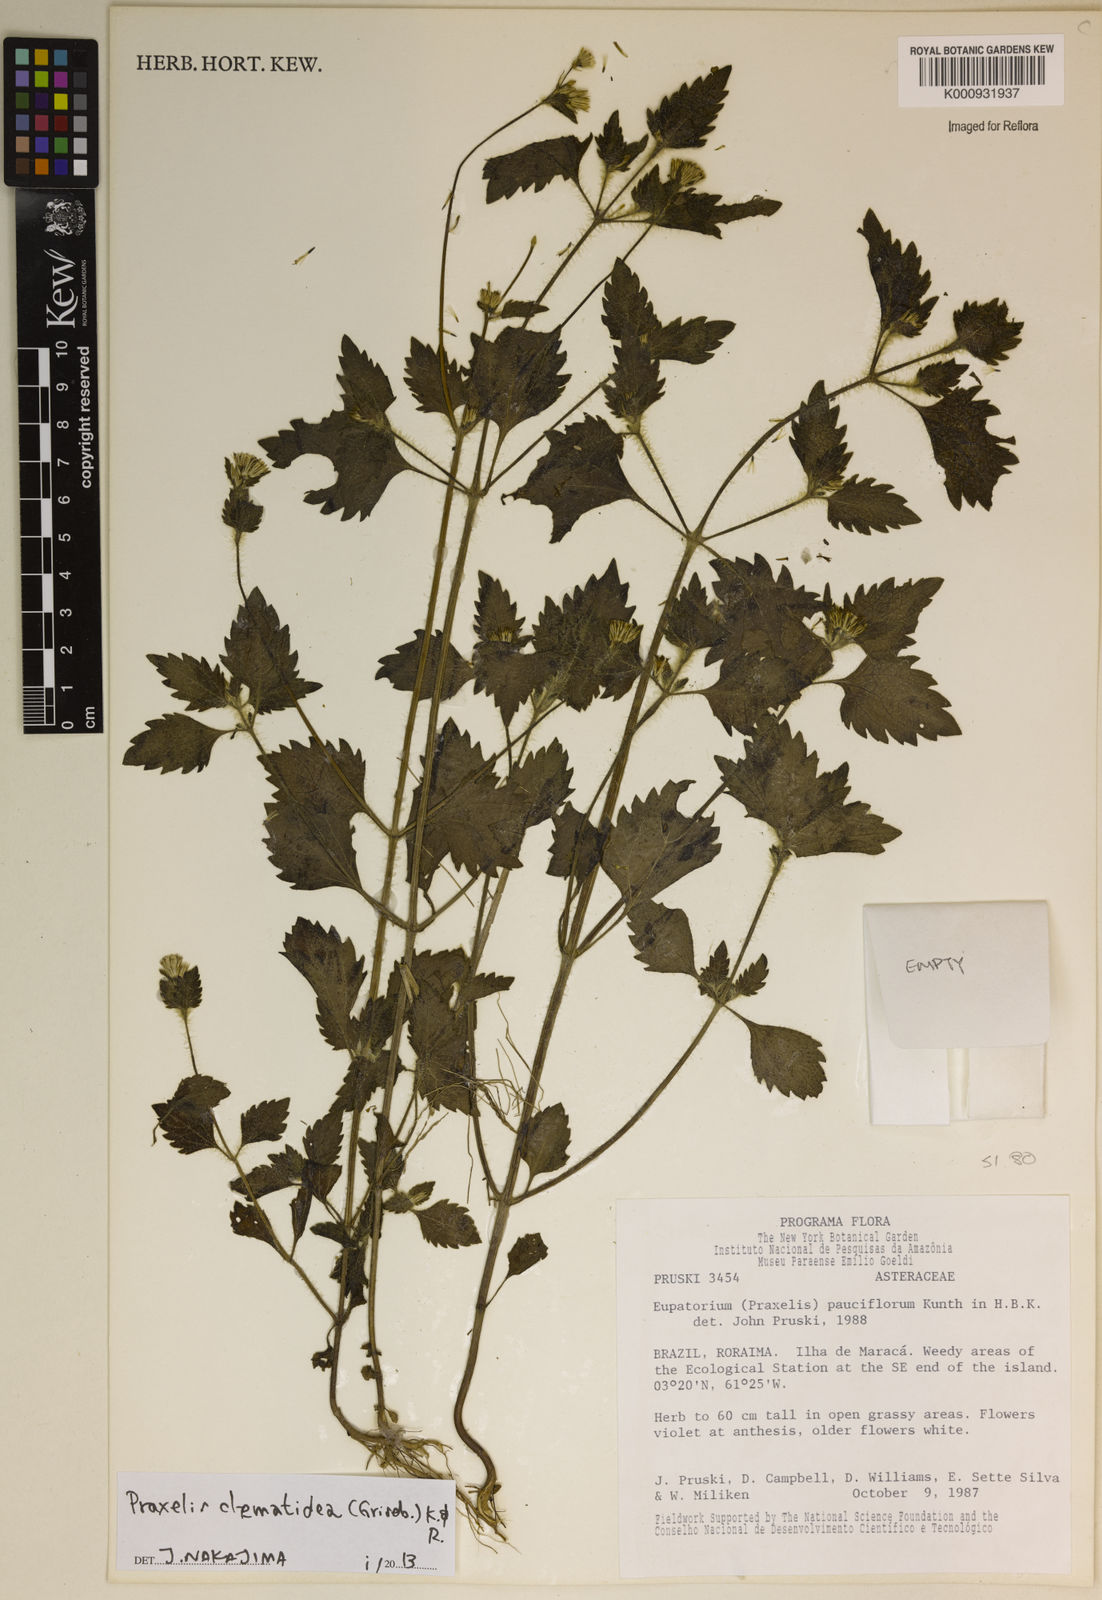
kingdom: Plantae
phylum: Tracheophyta
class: Magnoliopsida
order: Asterales
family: Asteraceae
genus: Praxelis
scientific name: Praxelis clematidea
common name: Praxelis
